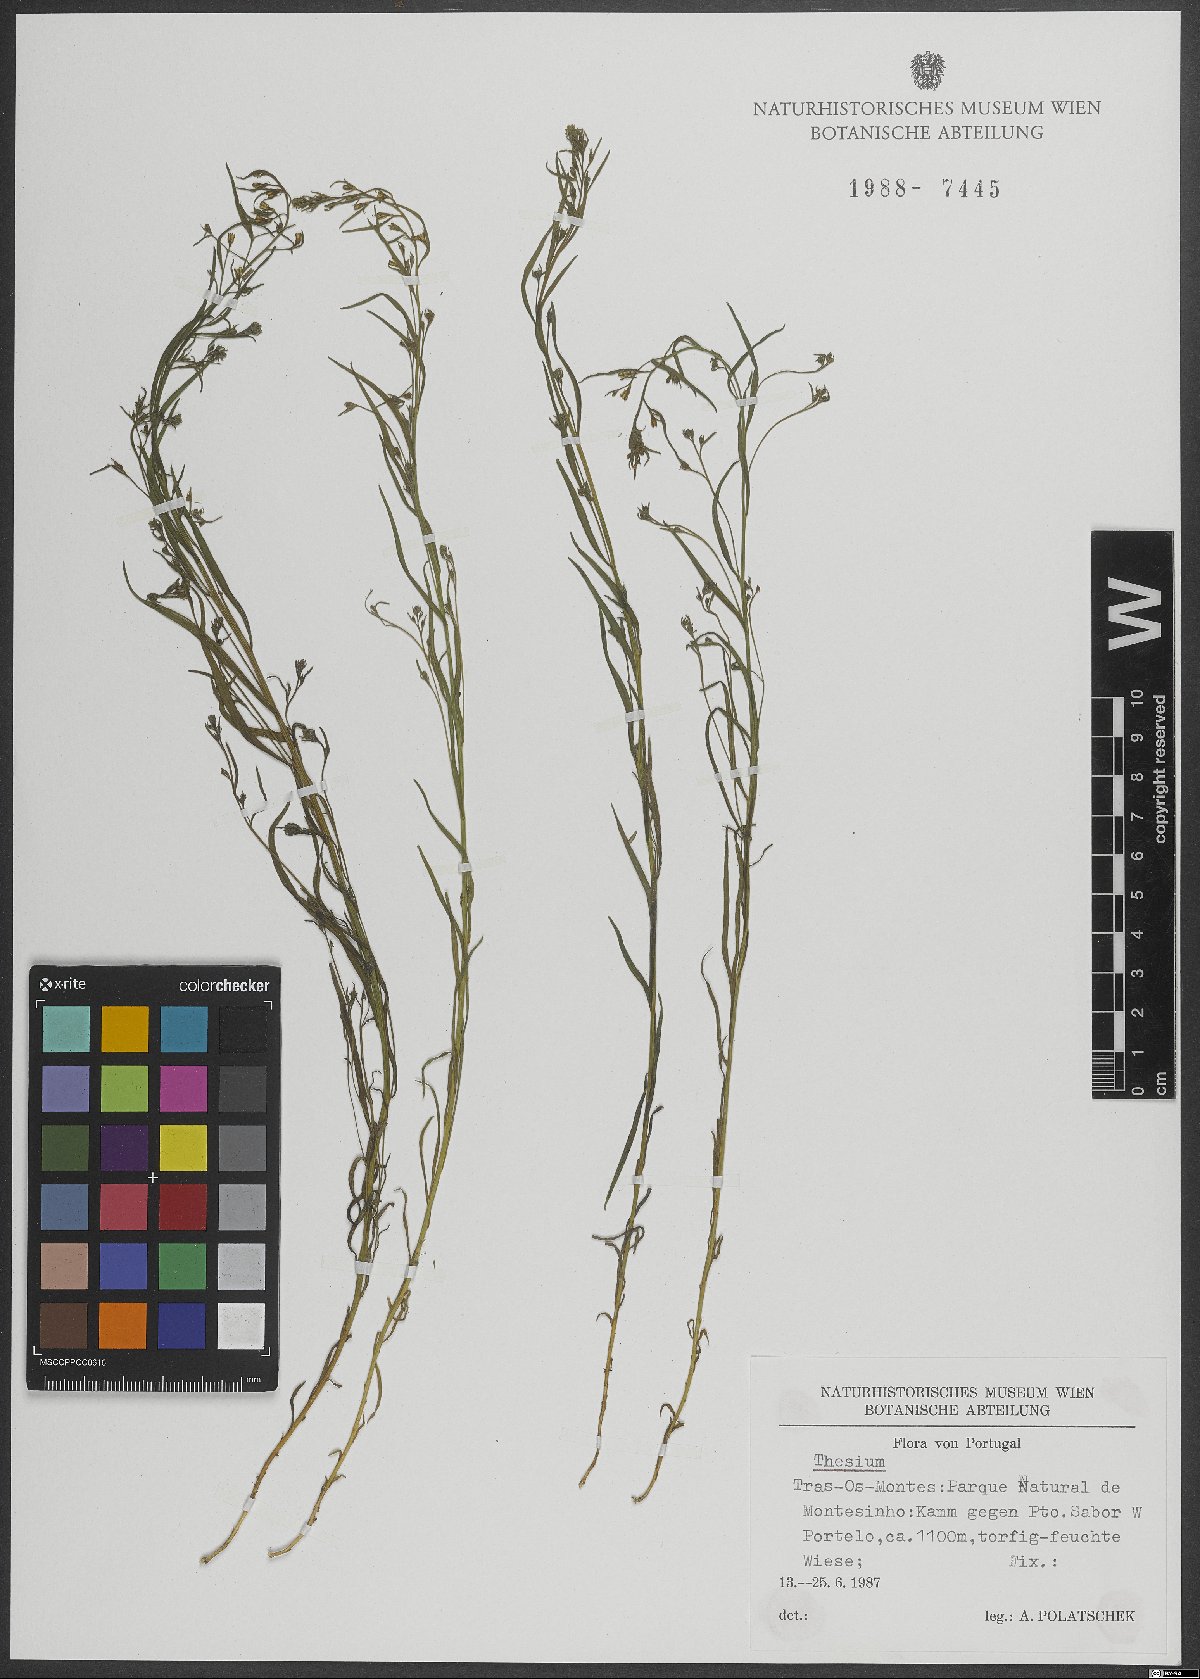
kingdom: Plantae
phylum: Tracheophyta
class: Magnoliopsida
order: Santalales
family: Thesiaceae
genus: Thesium
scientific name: Thesium
